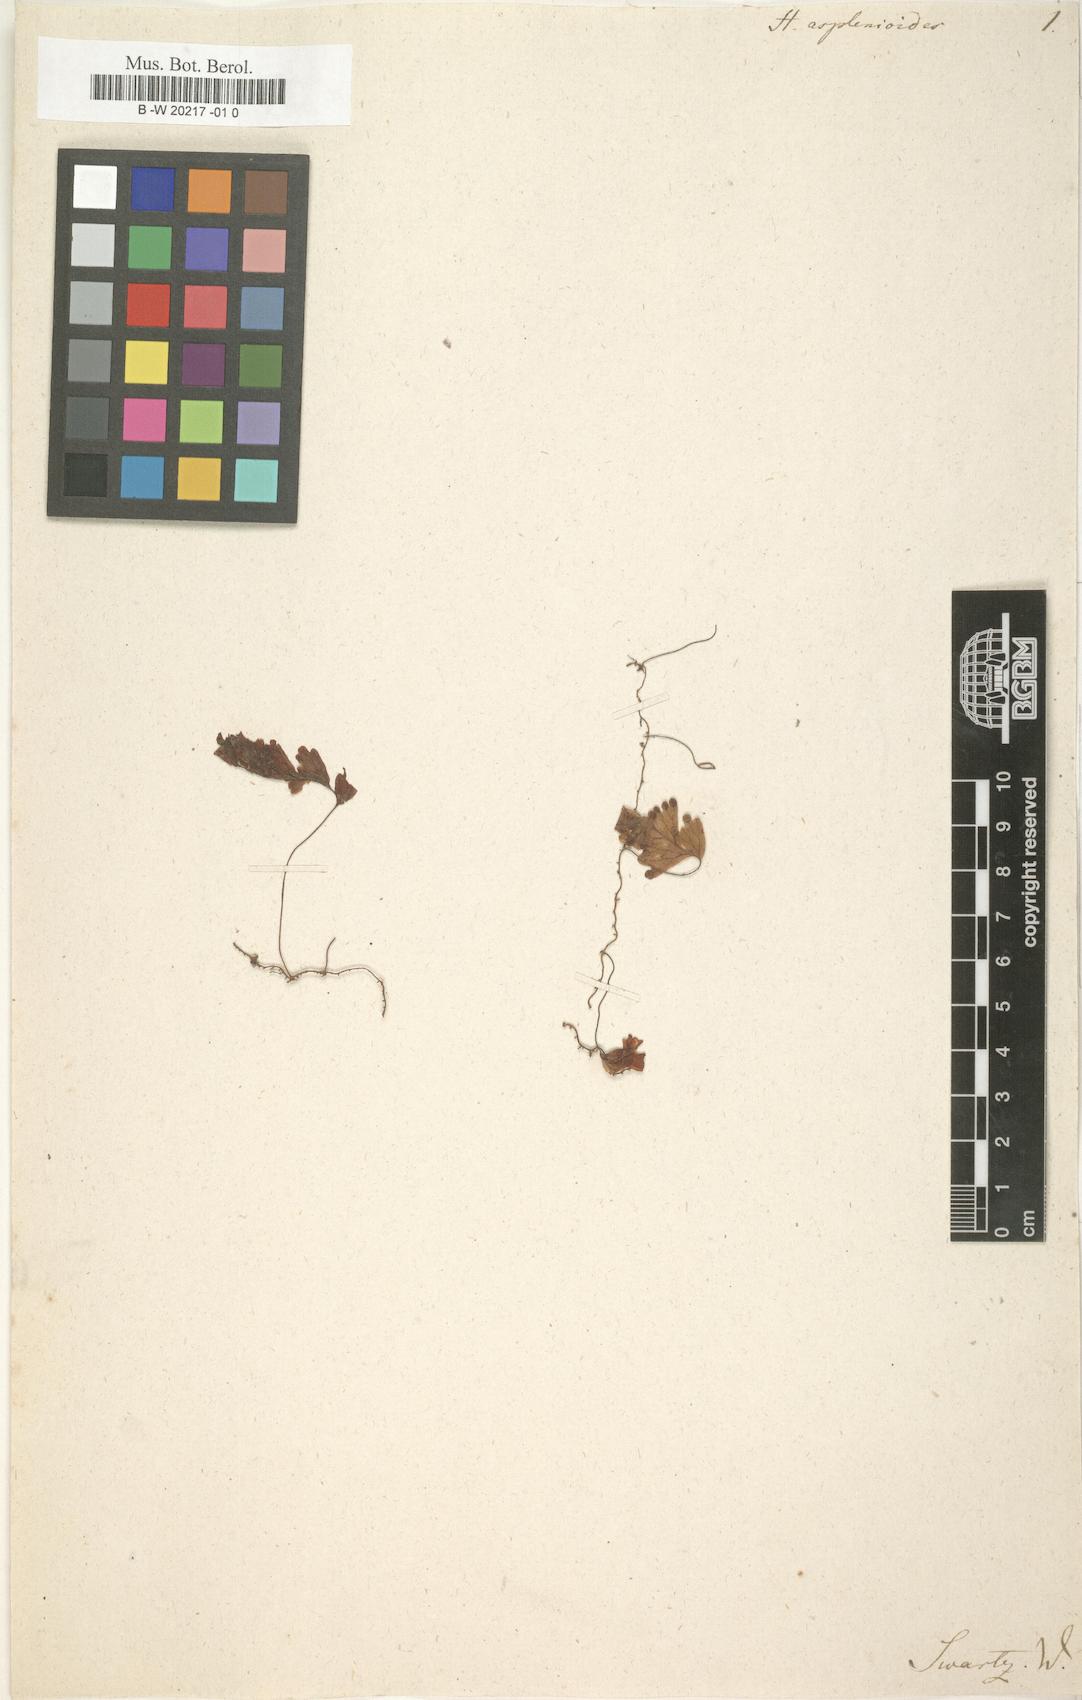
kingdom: Plantae
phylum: Tracheophyta
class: Polypodiopsida
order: Hymenophyllales
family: Hymenophyllaceae
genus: Hymenophyllum
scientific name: Hymenophyllum asplenioides
